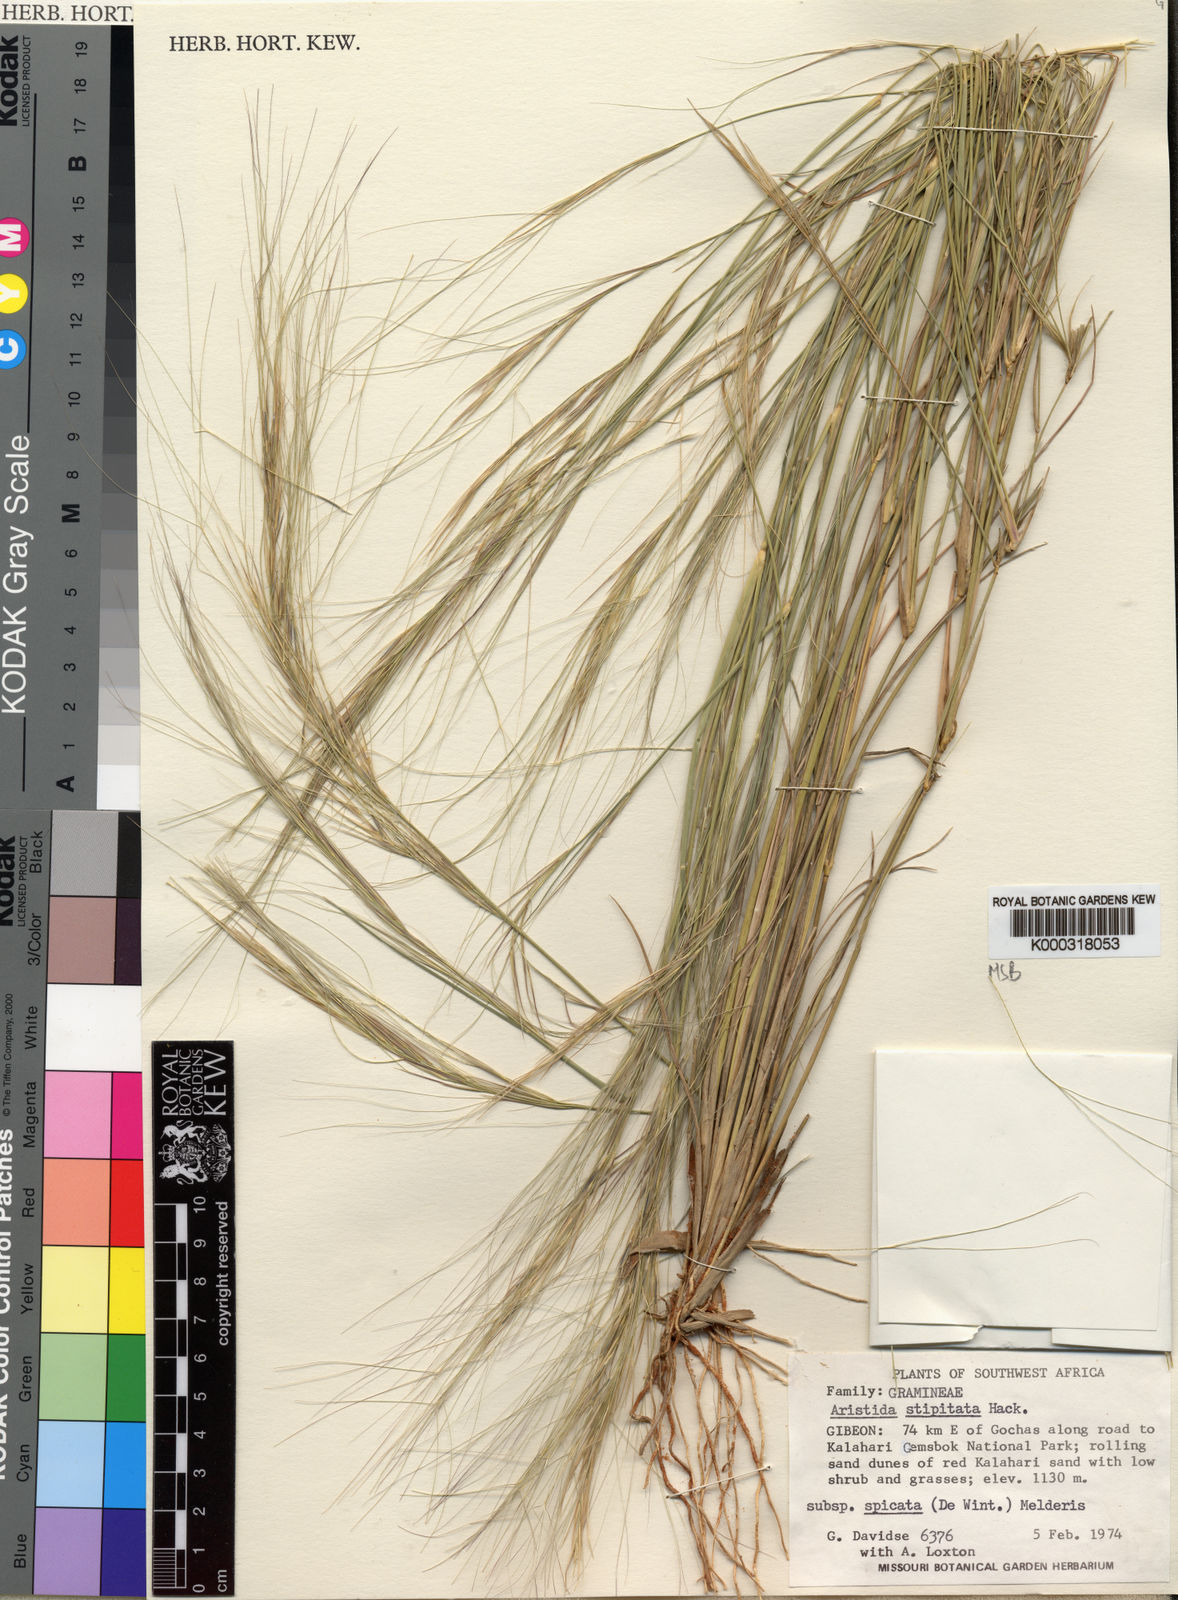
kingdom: Plantae
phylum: Tracheophyta
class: Liliopsida
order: Poales
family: Poaceae
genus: Aristida
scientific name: Aristida stipitata
